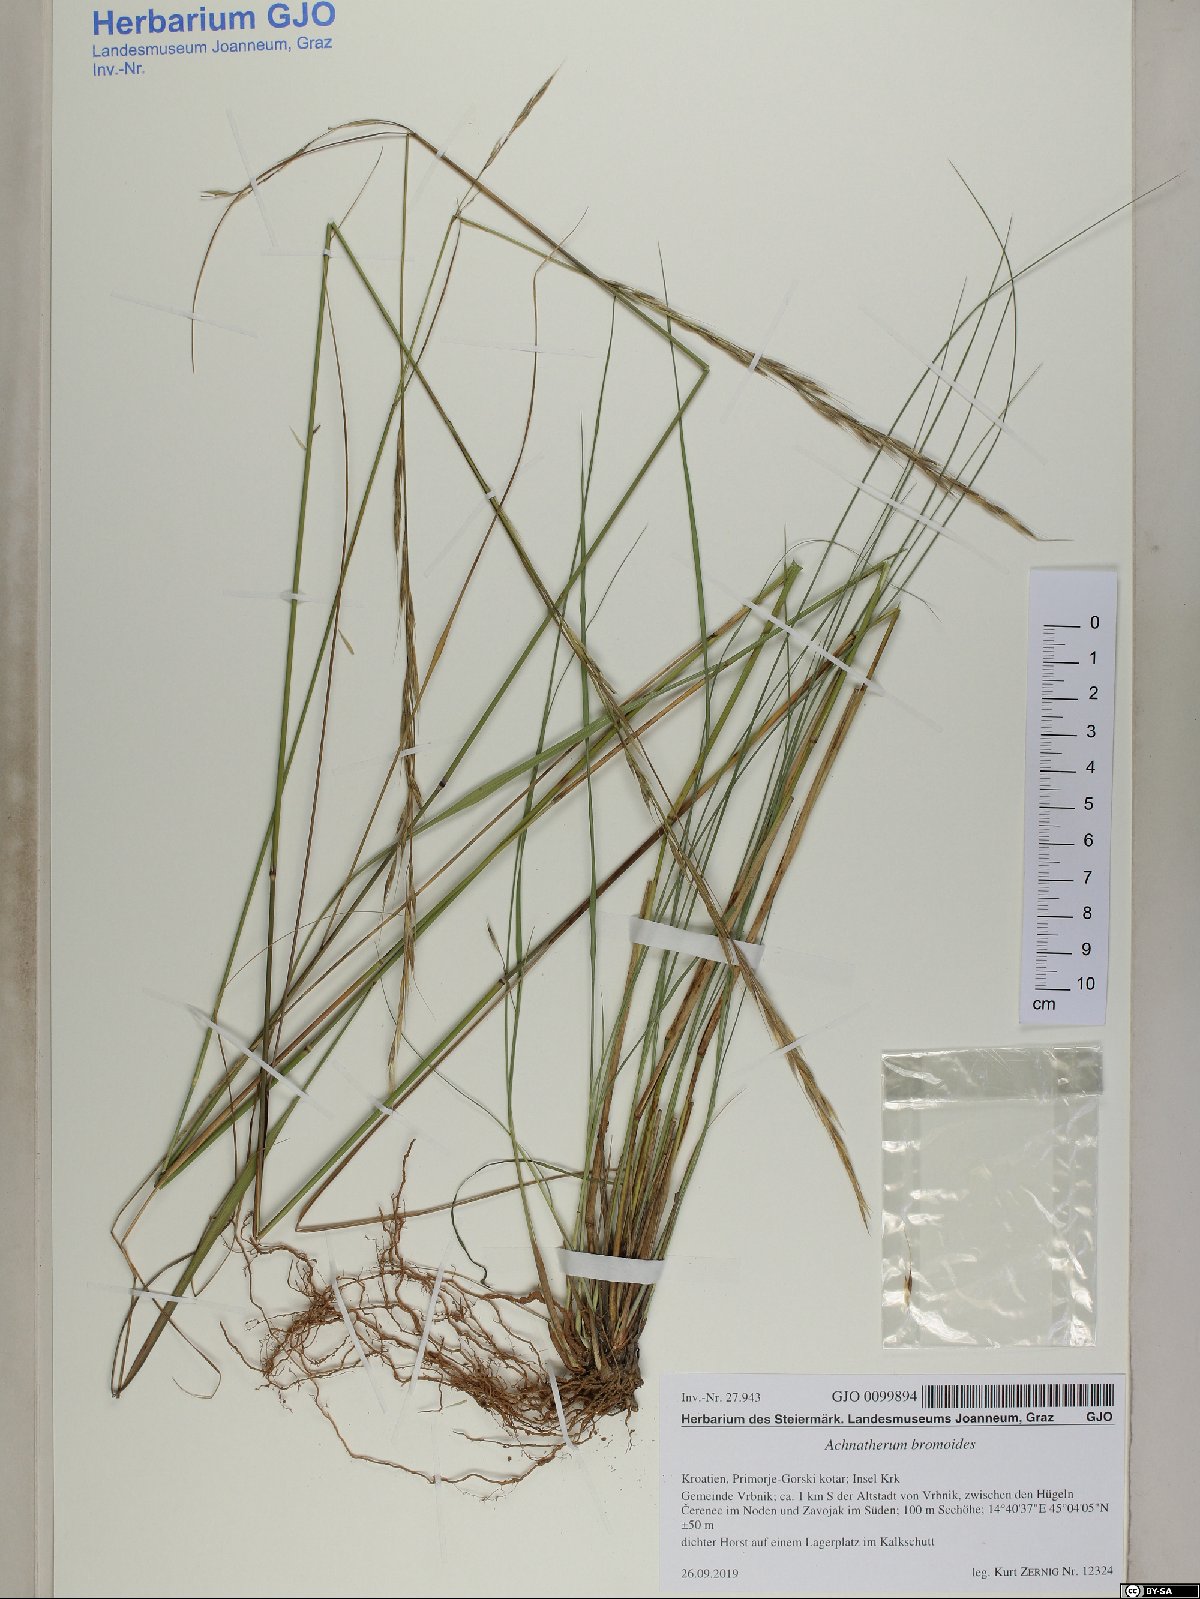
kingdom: Plantae
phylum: Tracheophyta
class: Liliopsida
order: Poales
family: Poaceae
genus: Achnatherum
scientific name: Achnatherum bromoides
